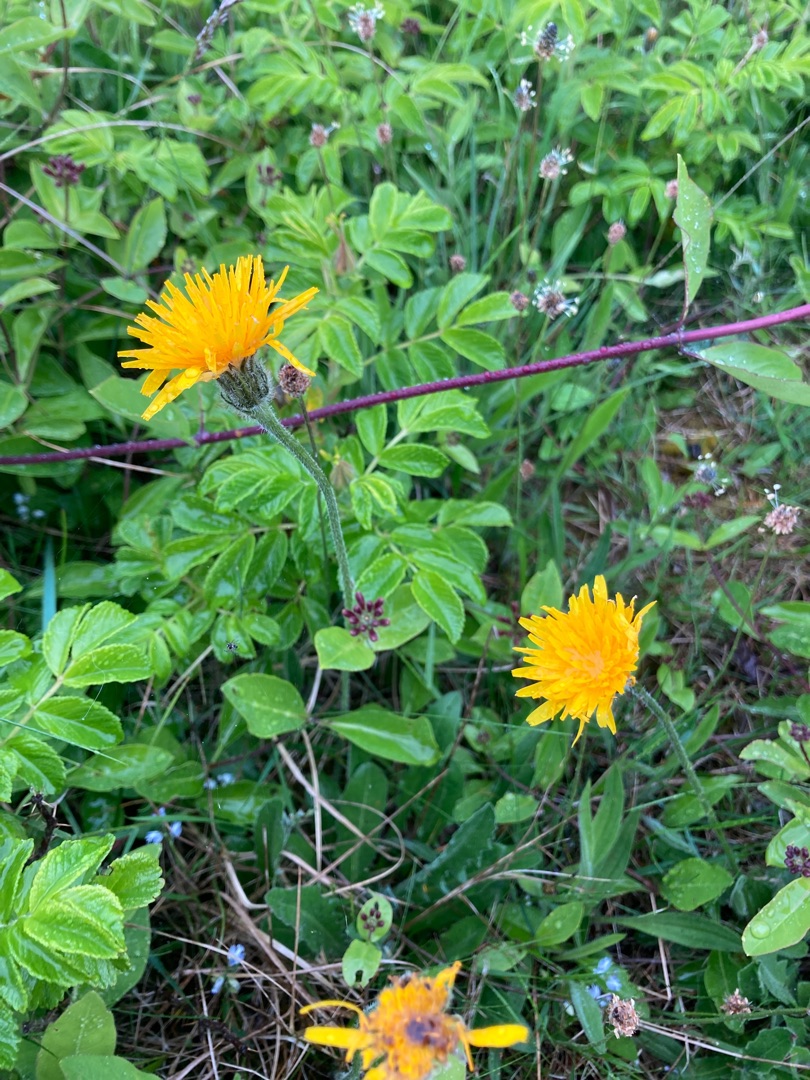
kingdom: Plantae
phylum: Tracheophyta
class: Magnoliopsida
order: Asterales
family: Asteraceae
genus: Leontodon
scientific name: Leontodon hispidus
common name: Stivhåret borst
